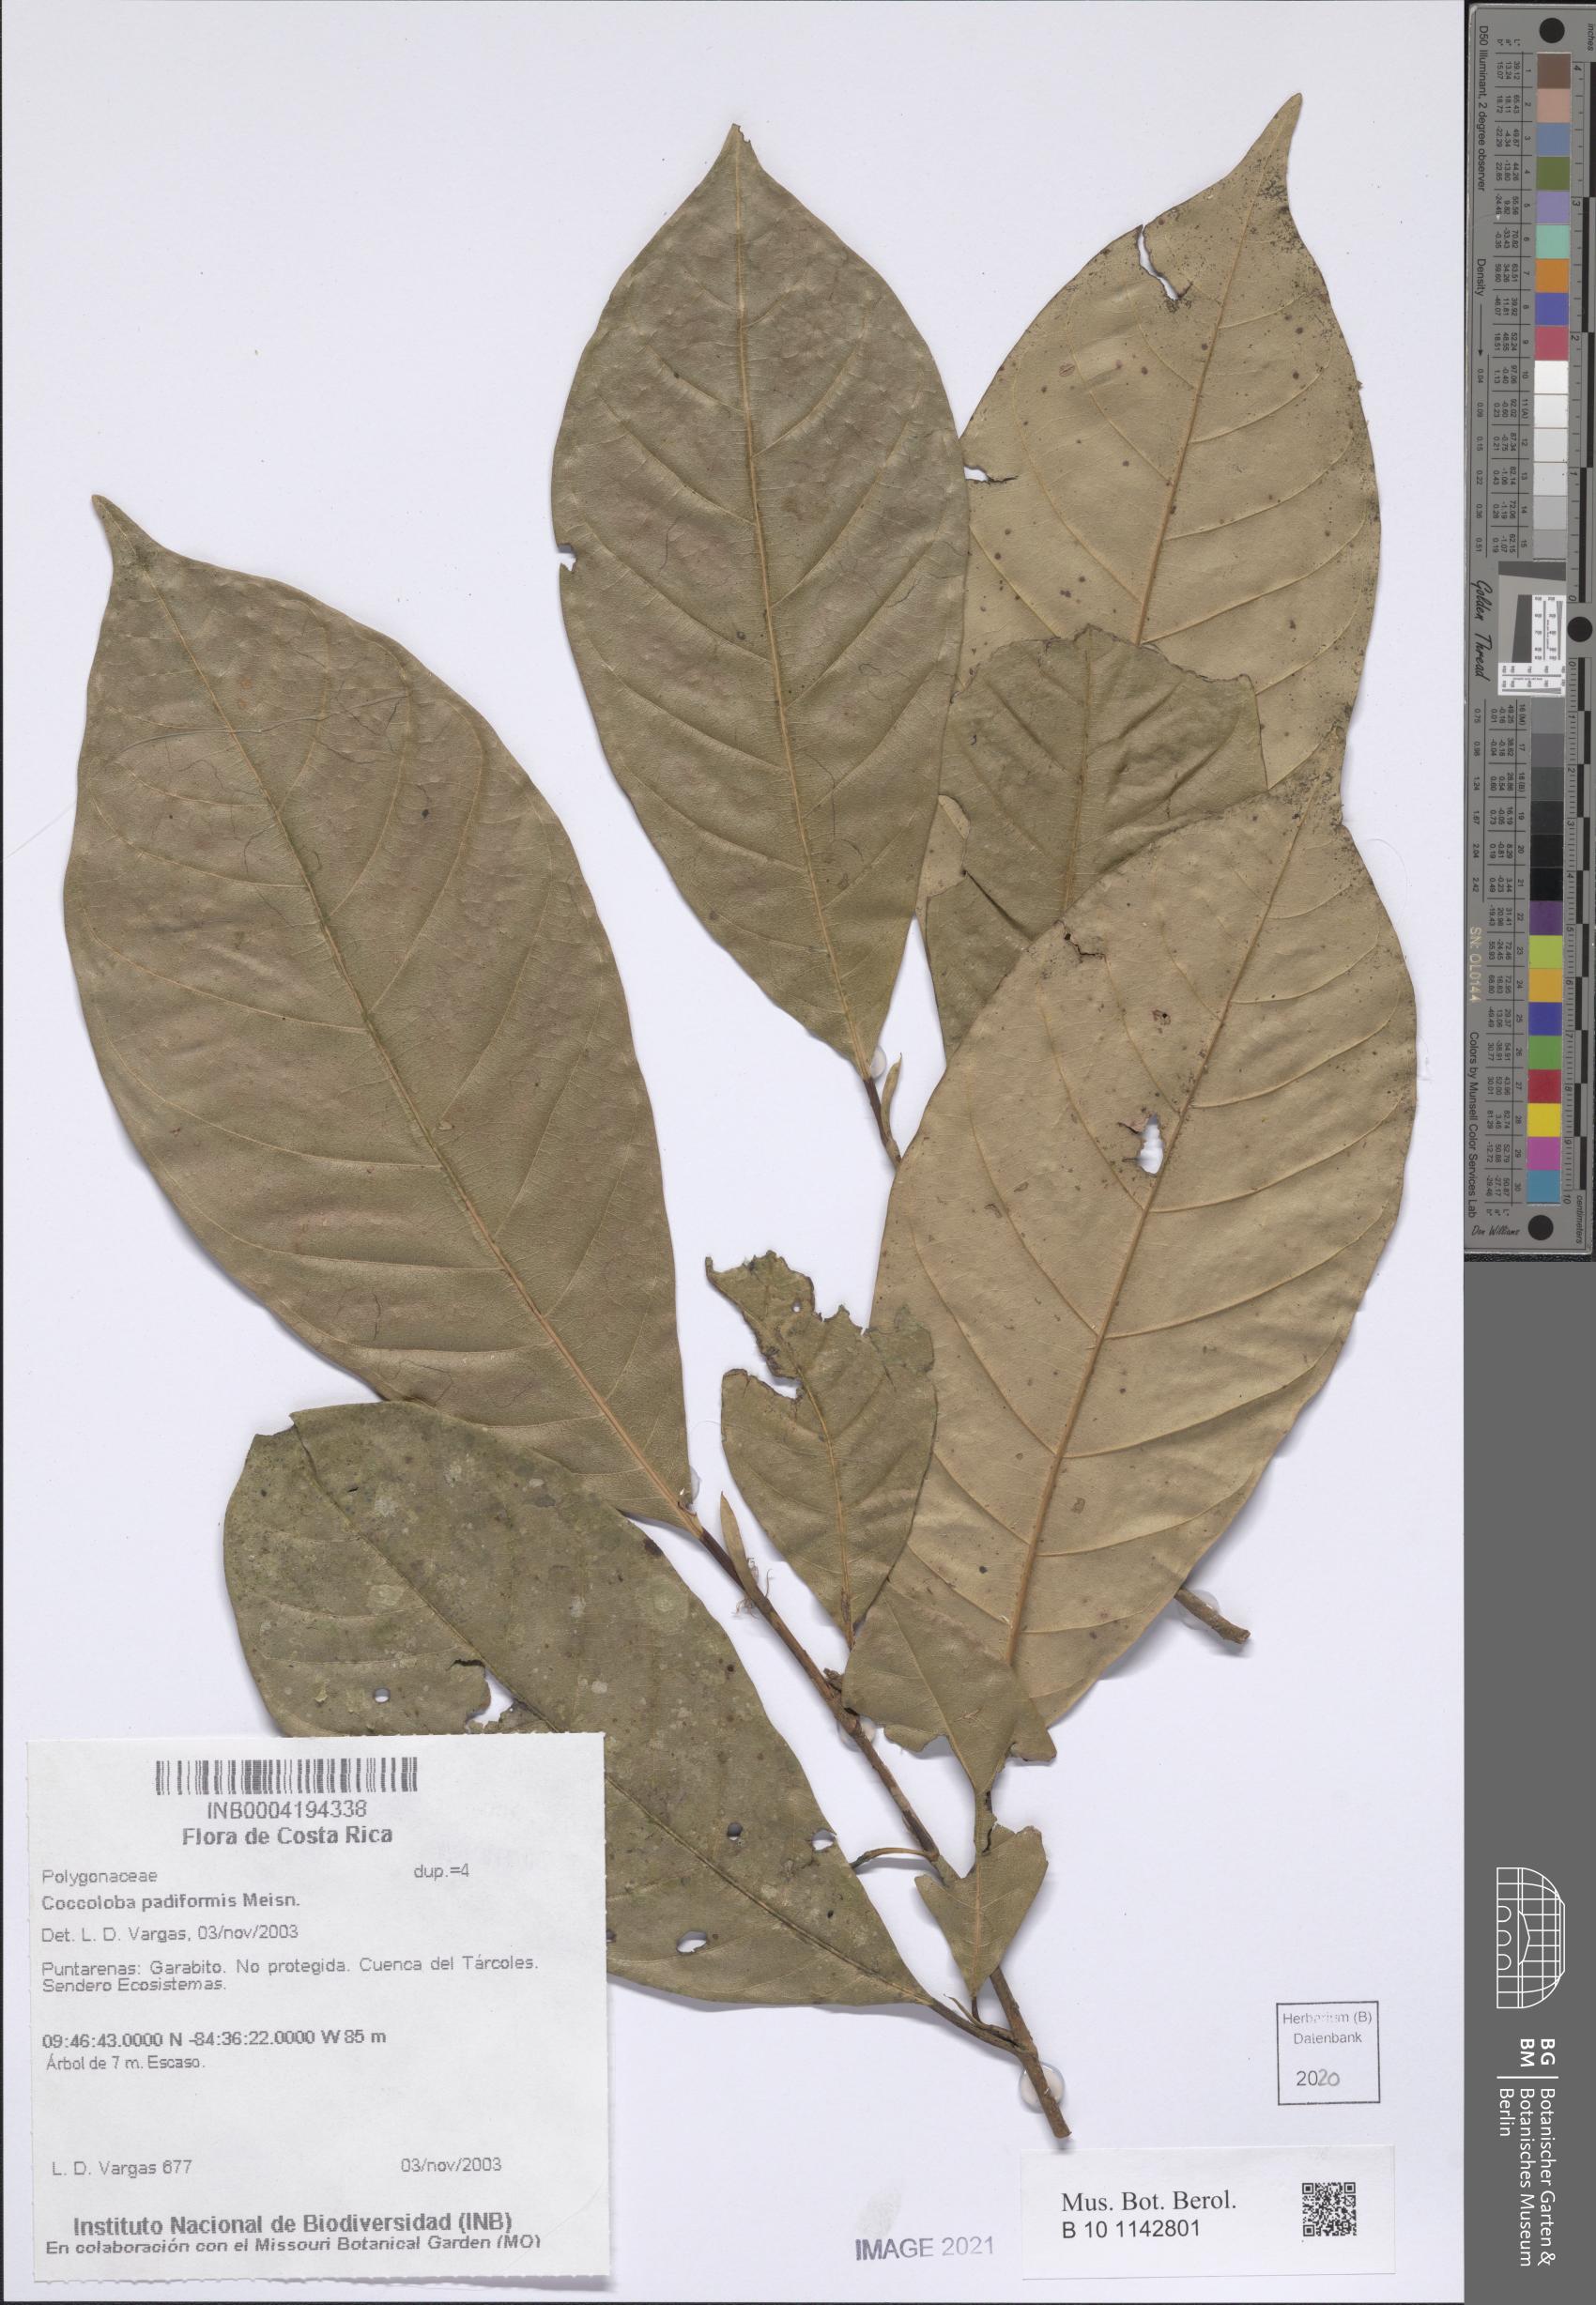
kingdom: Plantae
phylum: Tracheophyta
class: Magnoliopsida
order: Caryophyllales
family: Polygonaceae
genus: Coccoloba
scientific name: Coccoloba padiformis
